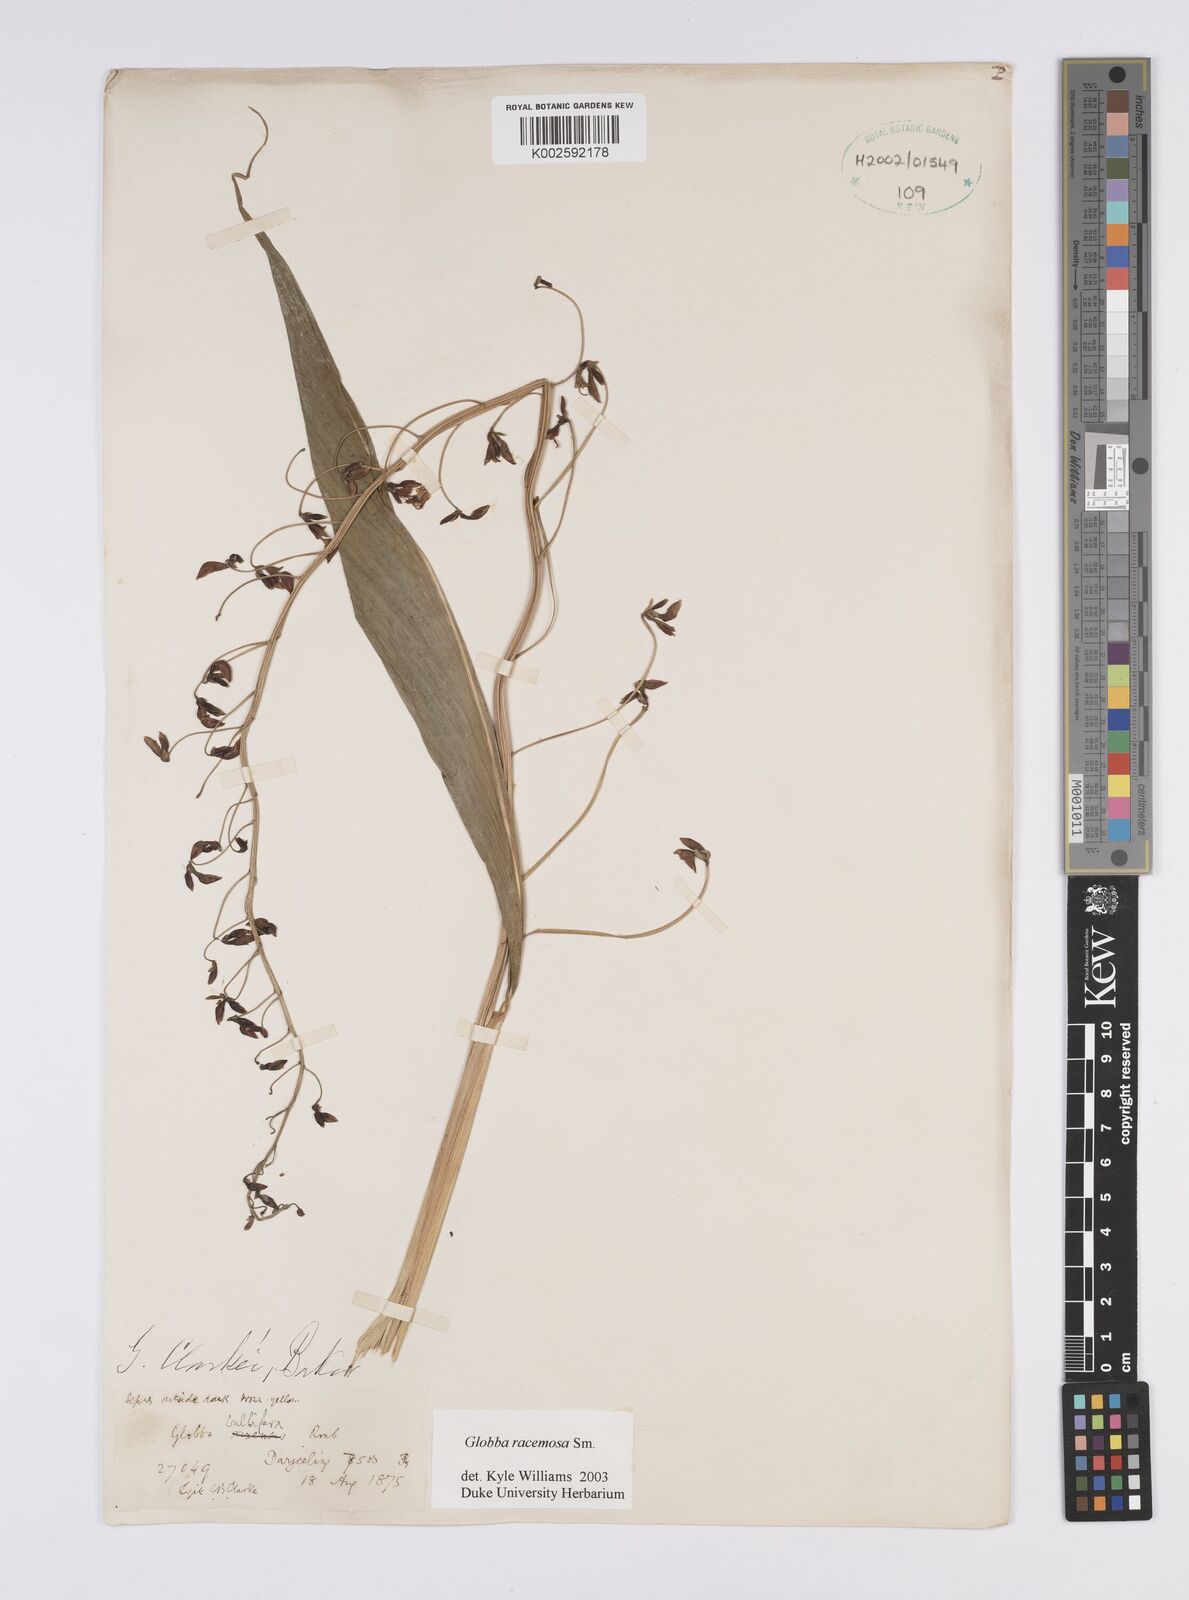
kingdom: Plantae
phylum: Tracheophyta
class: Liliopsida
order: Zingiberales
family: Zingiberaceae
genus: Globba
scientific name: Globba racemosa
